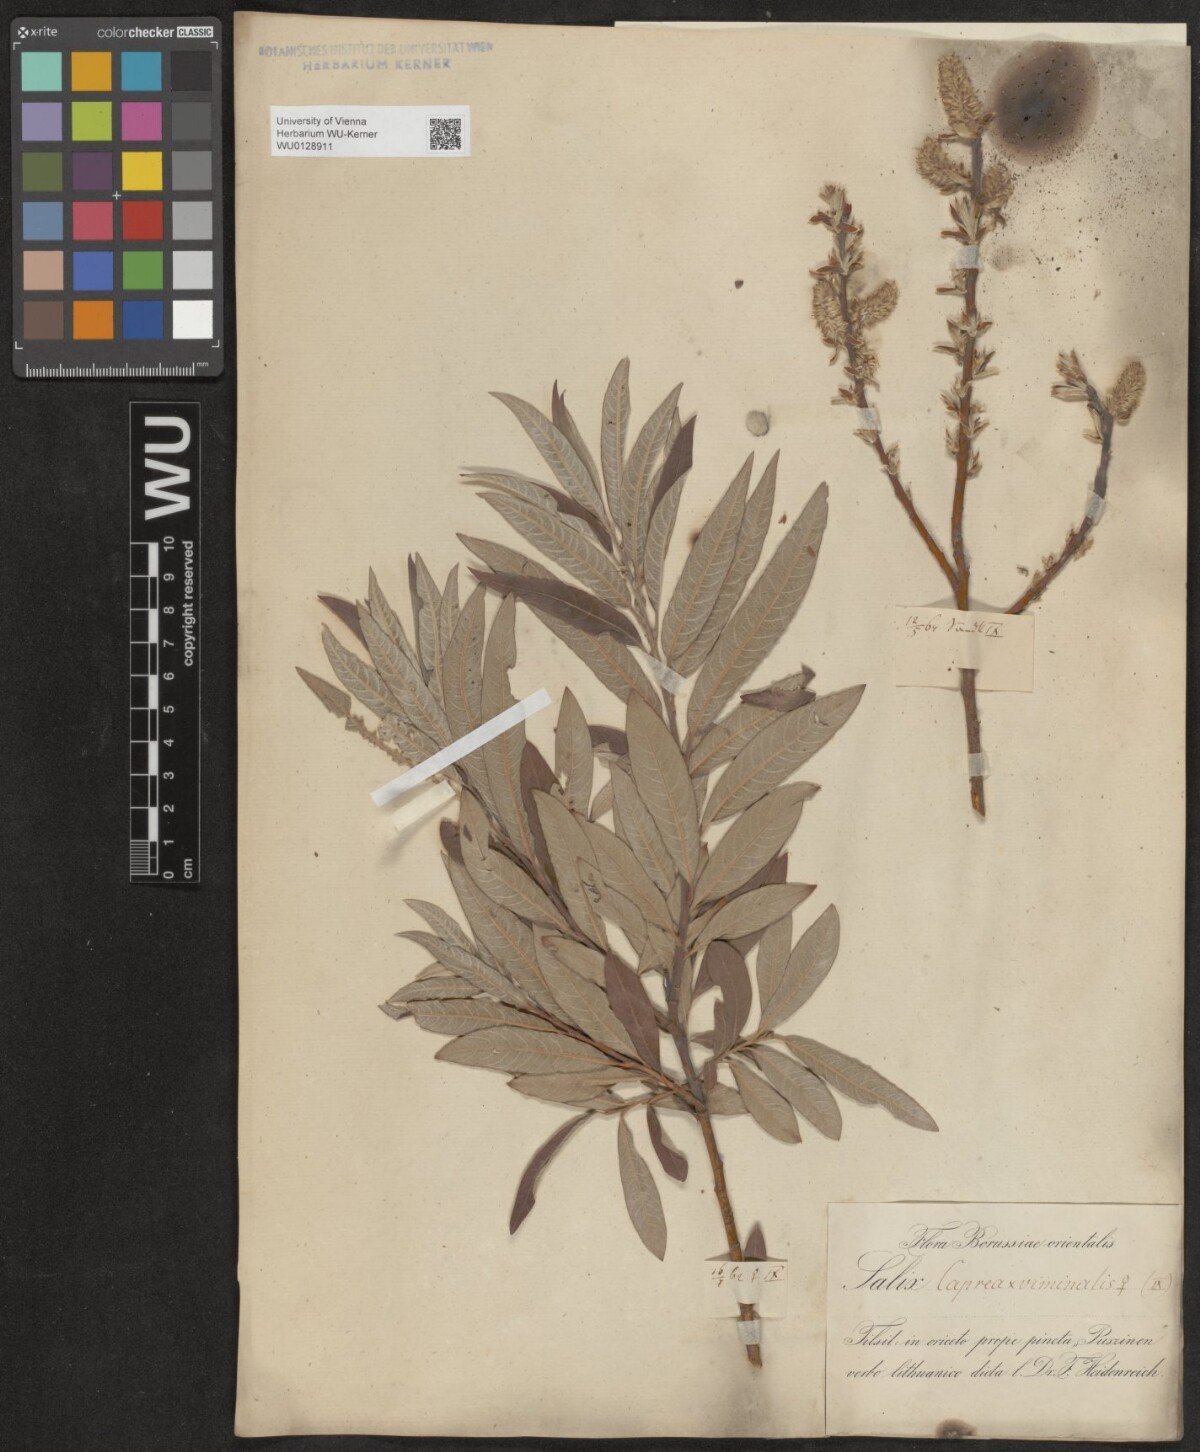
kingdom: Plantae
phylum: Tracheophyta
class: Magnoliopsida
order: Malpighiales
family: Salicaceae
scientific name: Salicaceae
